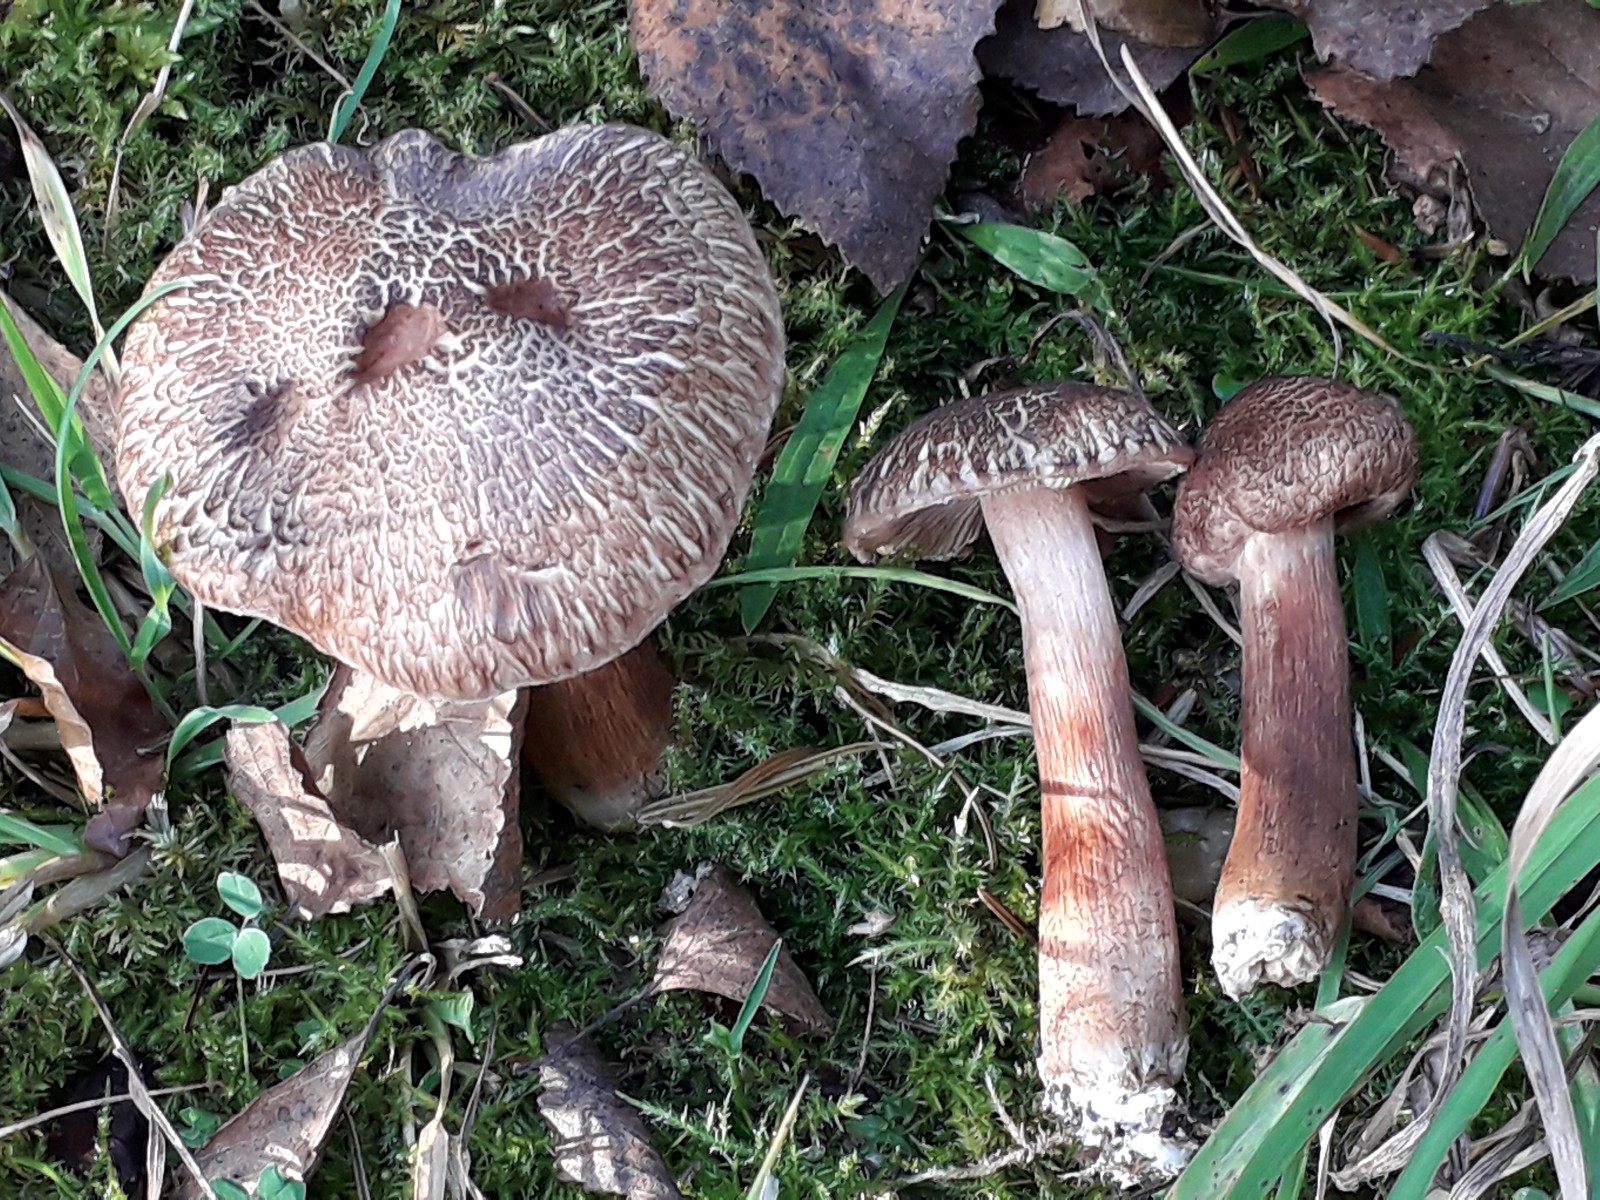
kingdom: Fungi
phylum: Basidiomycota
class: Agaricomycetes
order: Agaricales
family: Tricholomataceae
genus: Tricholoma
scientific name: Tricholoma vaccinum
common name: ko-ridderhat
